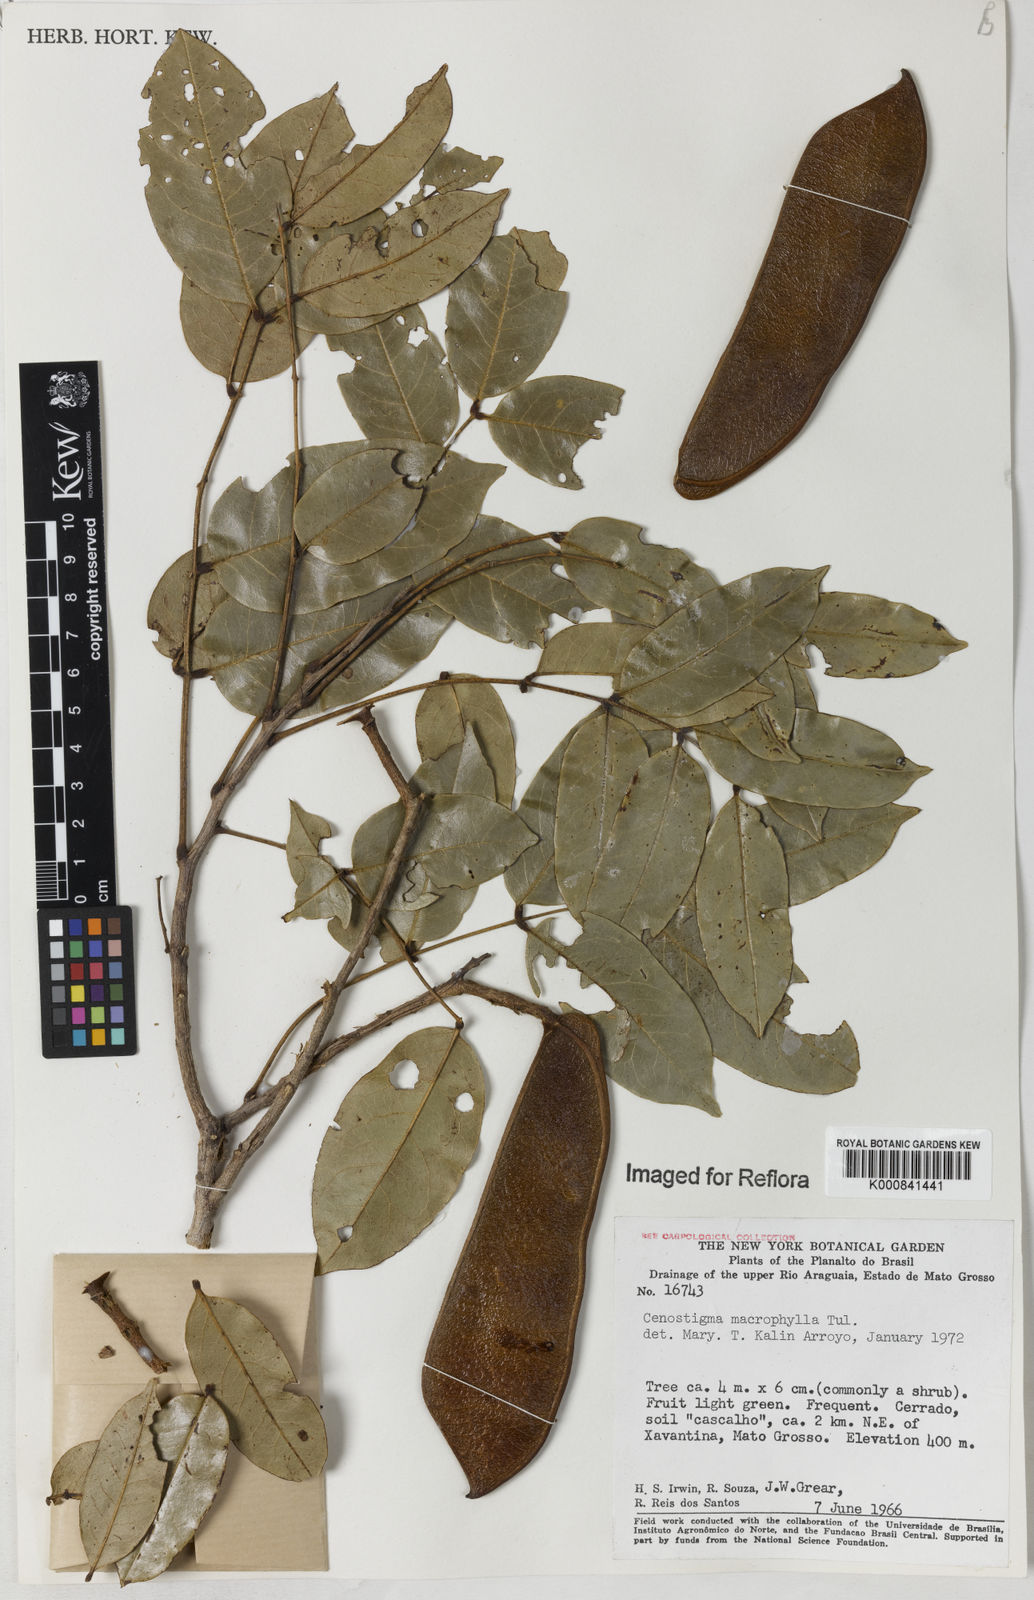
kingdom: Plantae
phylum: Tracheophyta
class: Magnoliopsida
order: Fabales
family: Fabaceae
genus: Cenostigma
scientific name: Cenostigma macrophyllum
